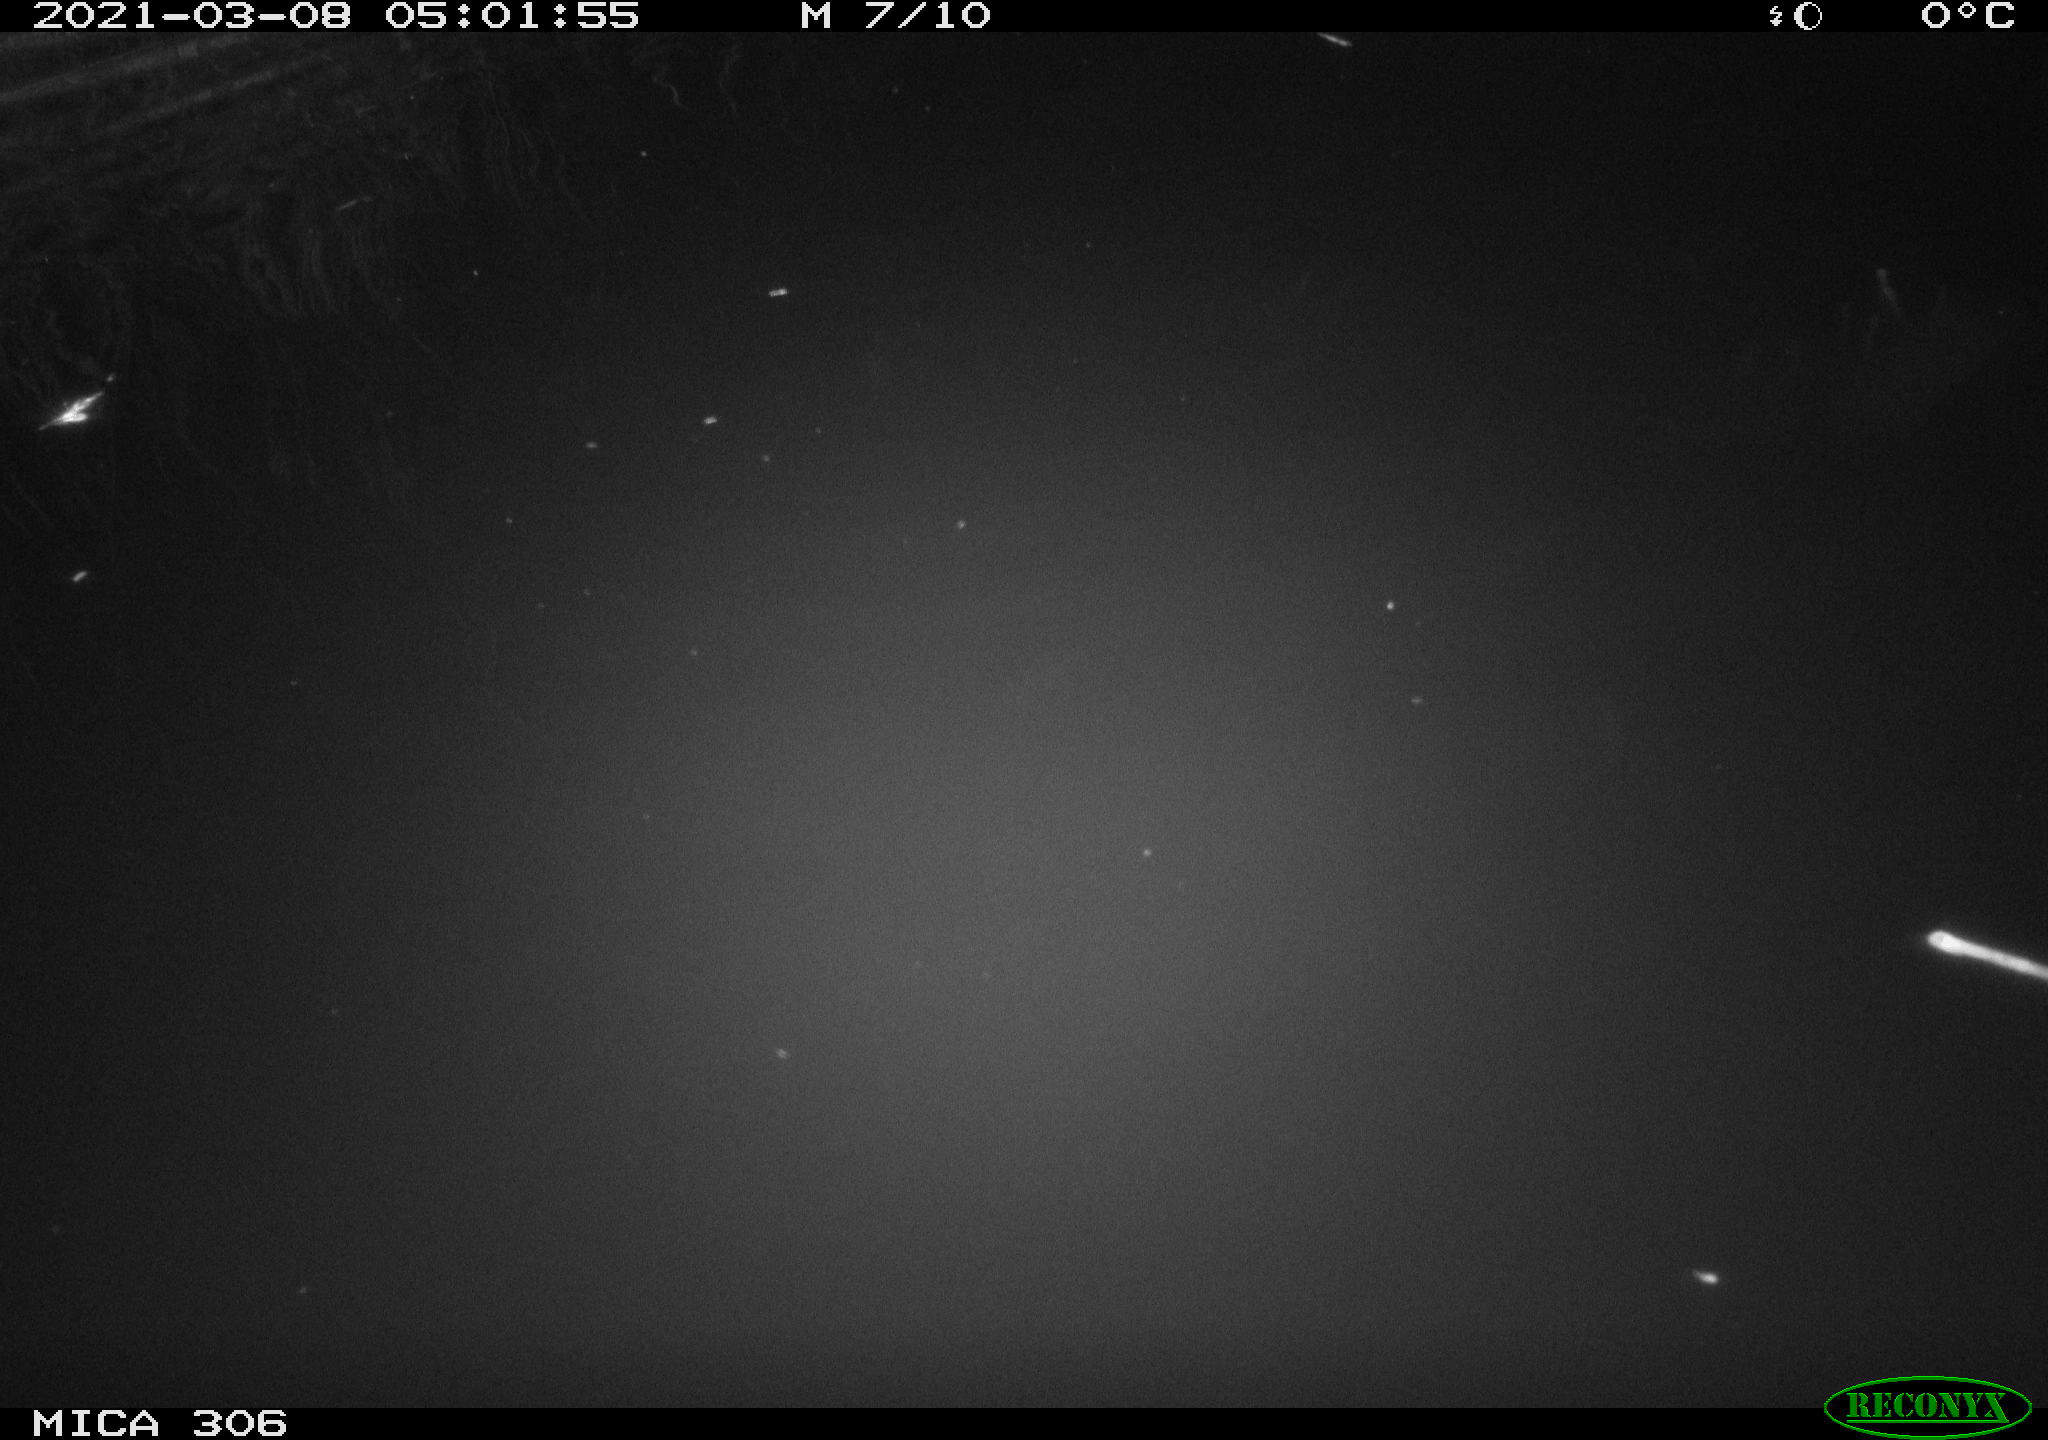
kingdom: Animalia
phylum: Chordata
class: Mammalia
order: Rodentia
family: Cricetidae
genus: Ondatra
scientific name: Ondatra zibethicus
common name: Muskrat
